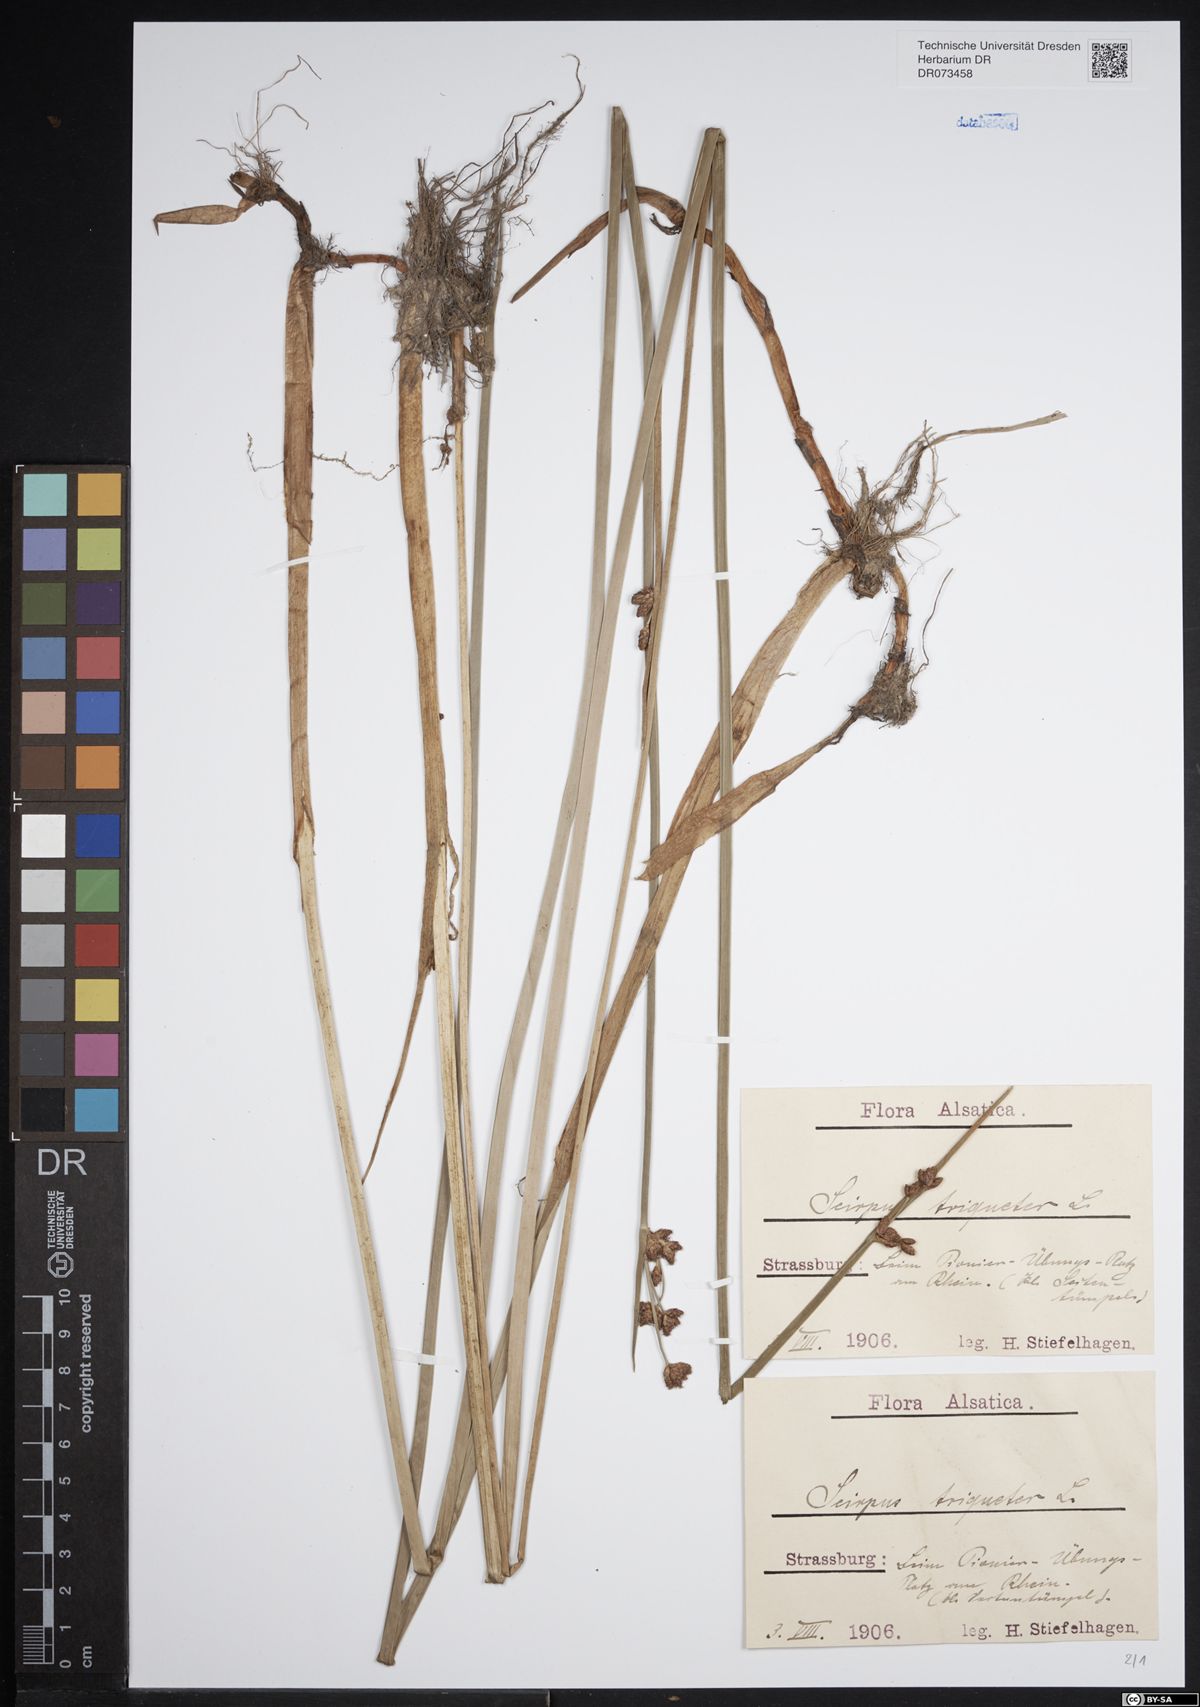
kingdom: Plantae
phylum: Tracheophyta
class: Liliopsida
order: Poales
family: Cyperaceae
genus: Schoenoplectus
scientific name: Schoenoplectus triqueter
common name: Triangular club-rush
